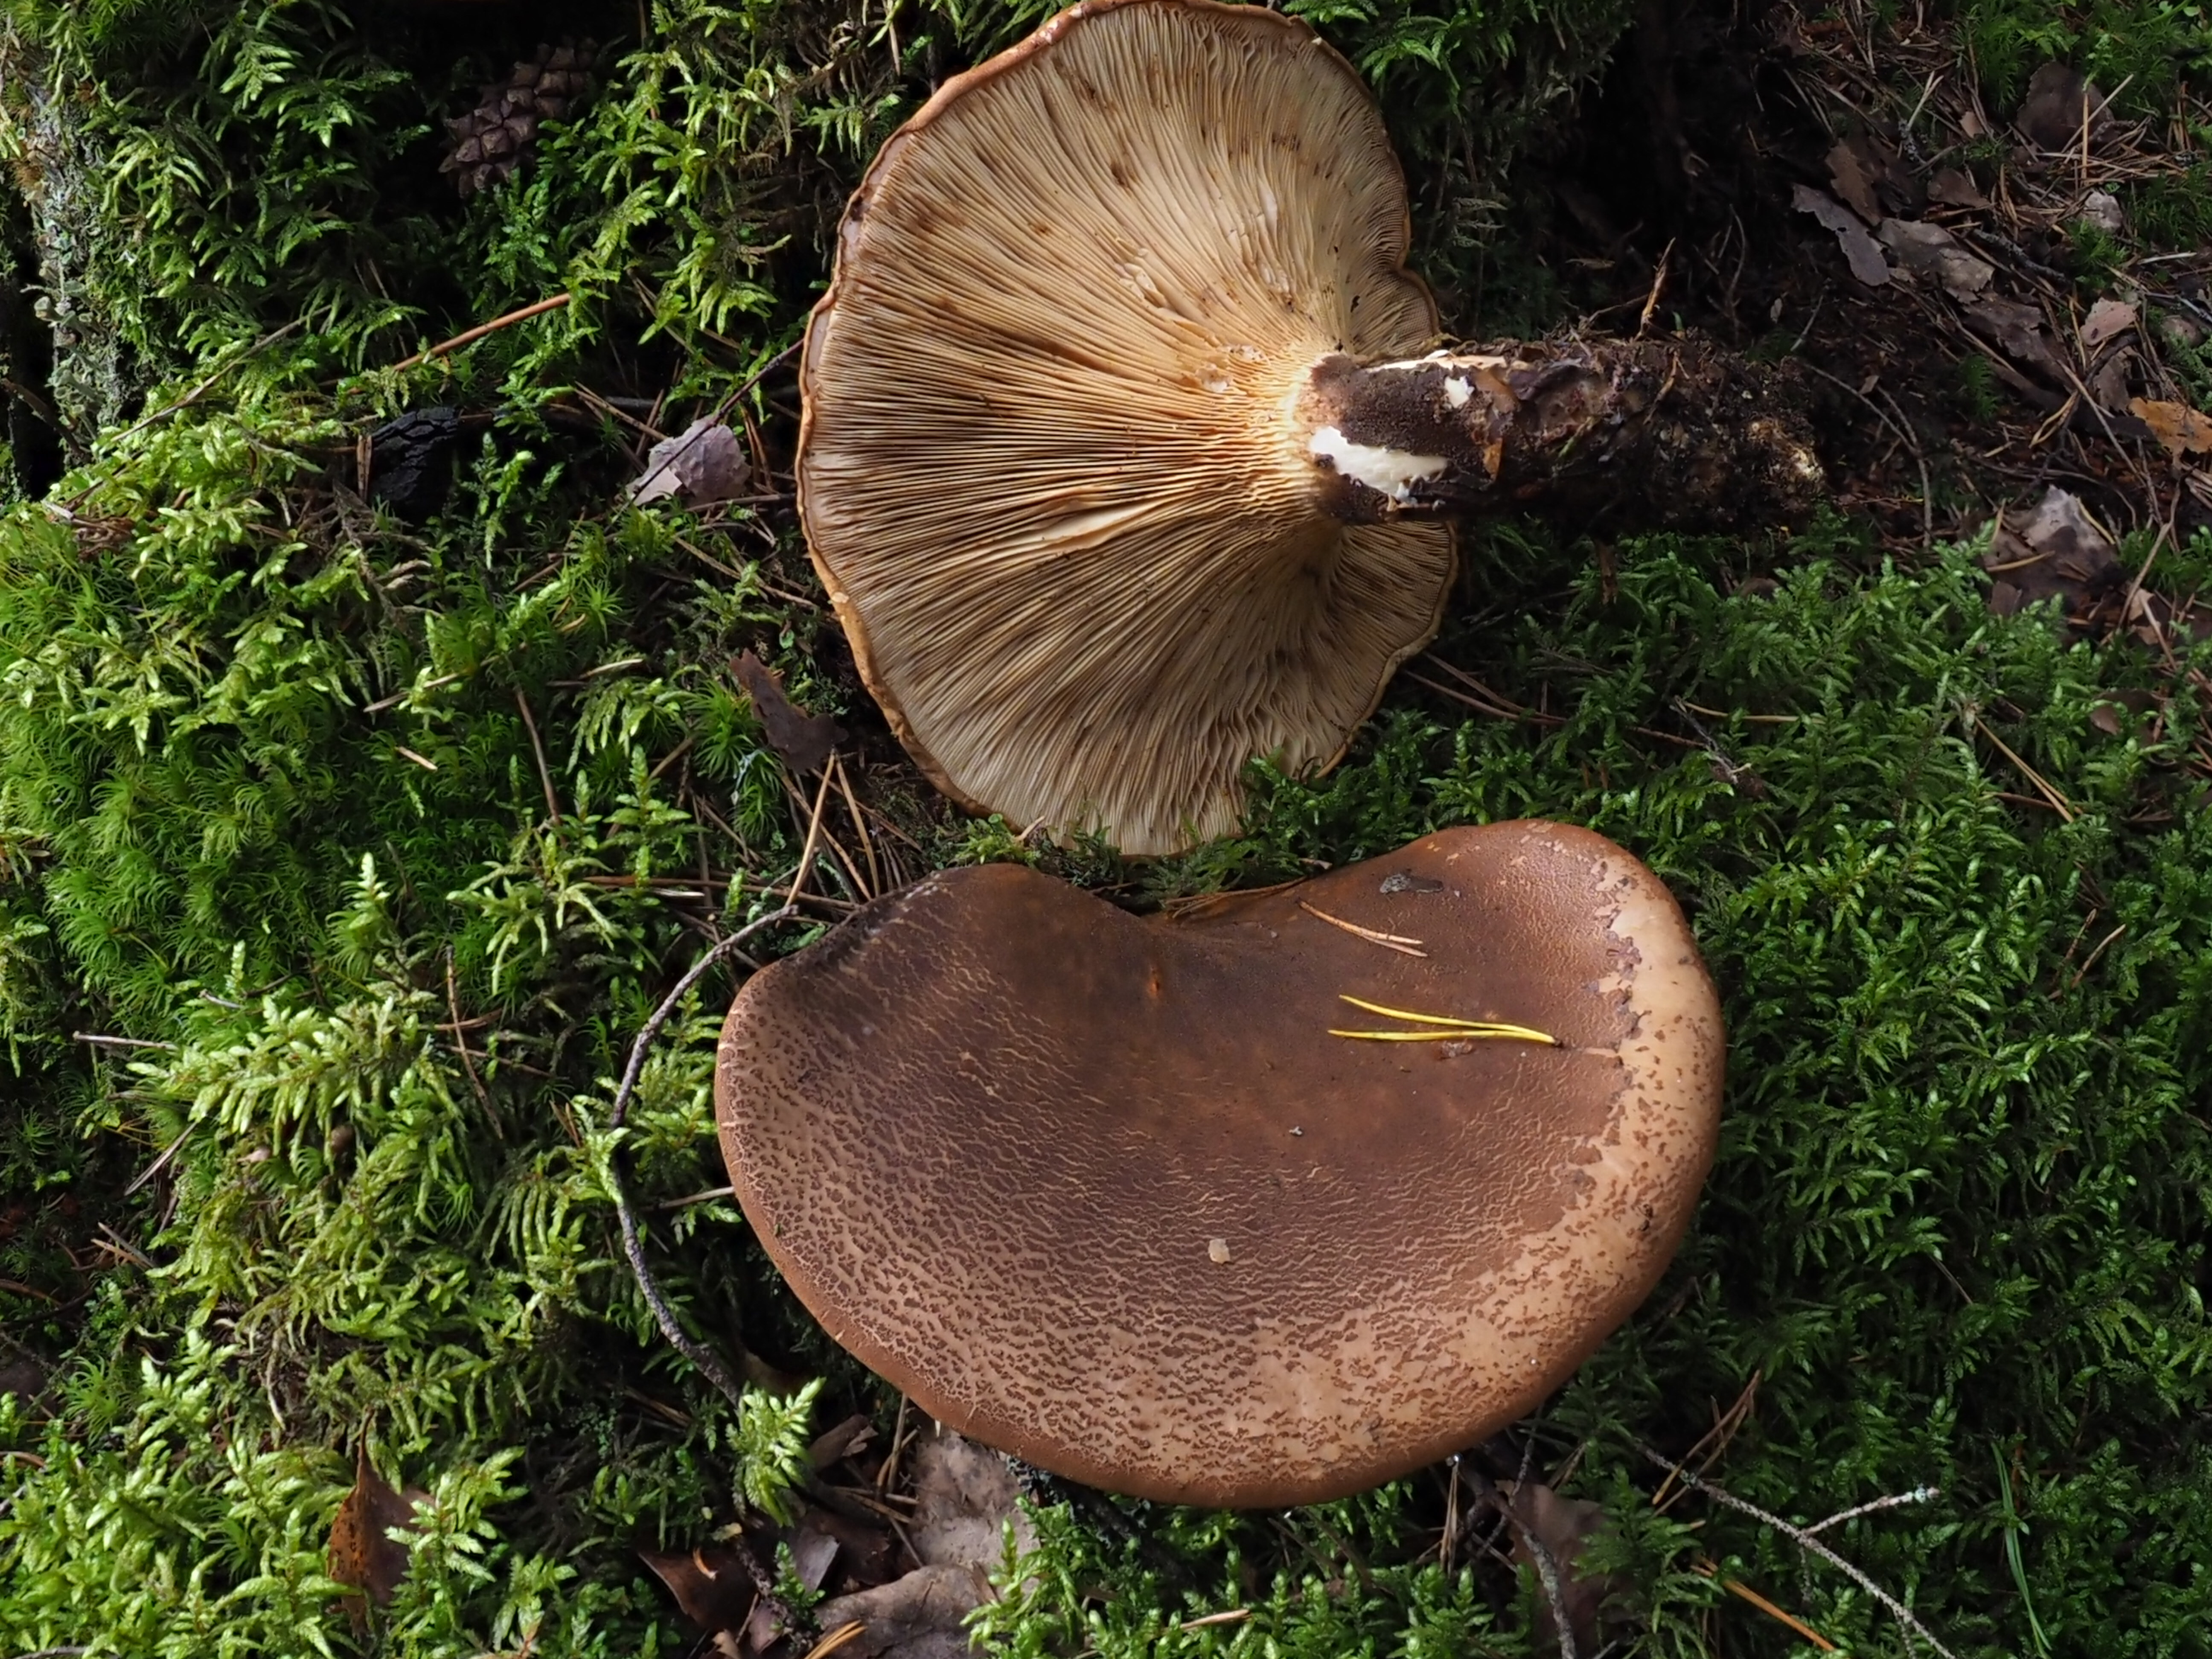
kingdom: Fungi
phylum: Basidiomycota
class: Agaricomycetes
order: Boletales
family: Tapinellaceae
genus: Tapinella
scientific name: Tapinella atrotomentosa
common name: Velvet rollrim
